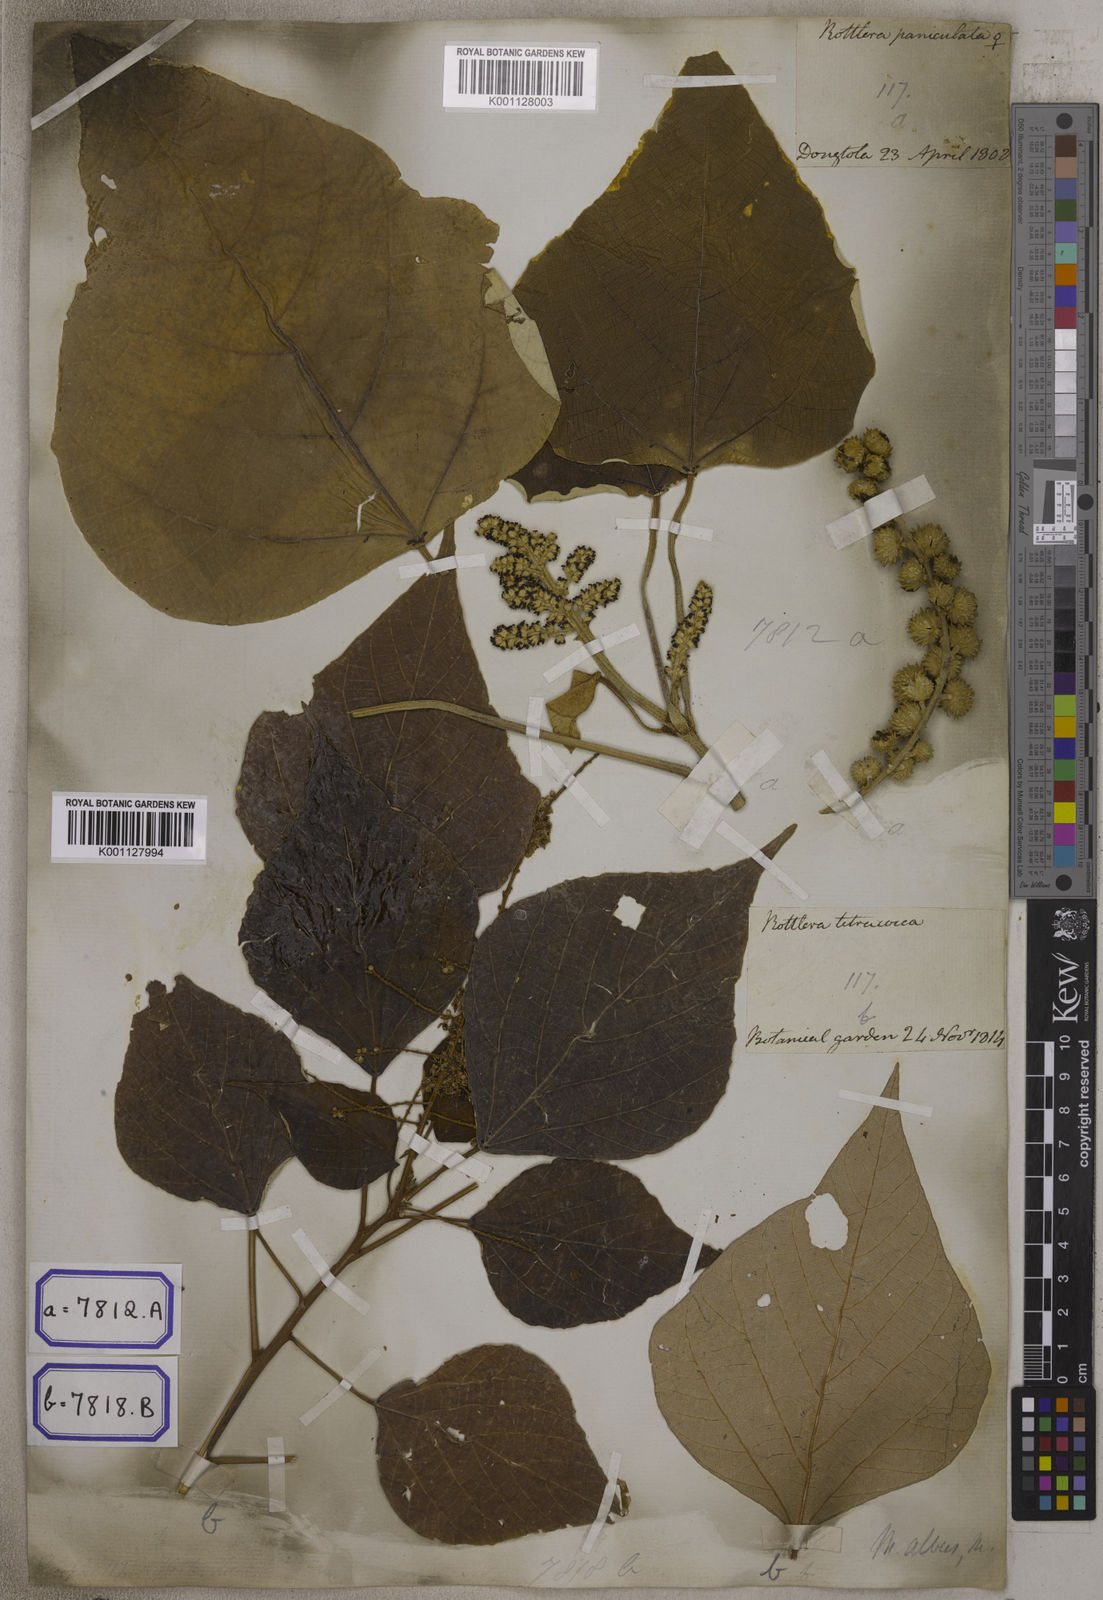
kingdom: Plantae
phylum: Tracheophyta
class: Magnoliopsida
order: Malpighiales
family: Euphorbiaceae
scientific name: Euphorbiaceae
